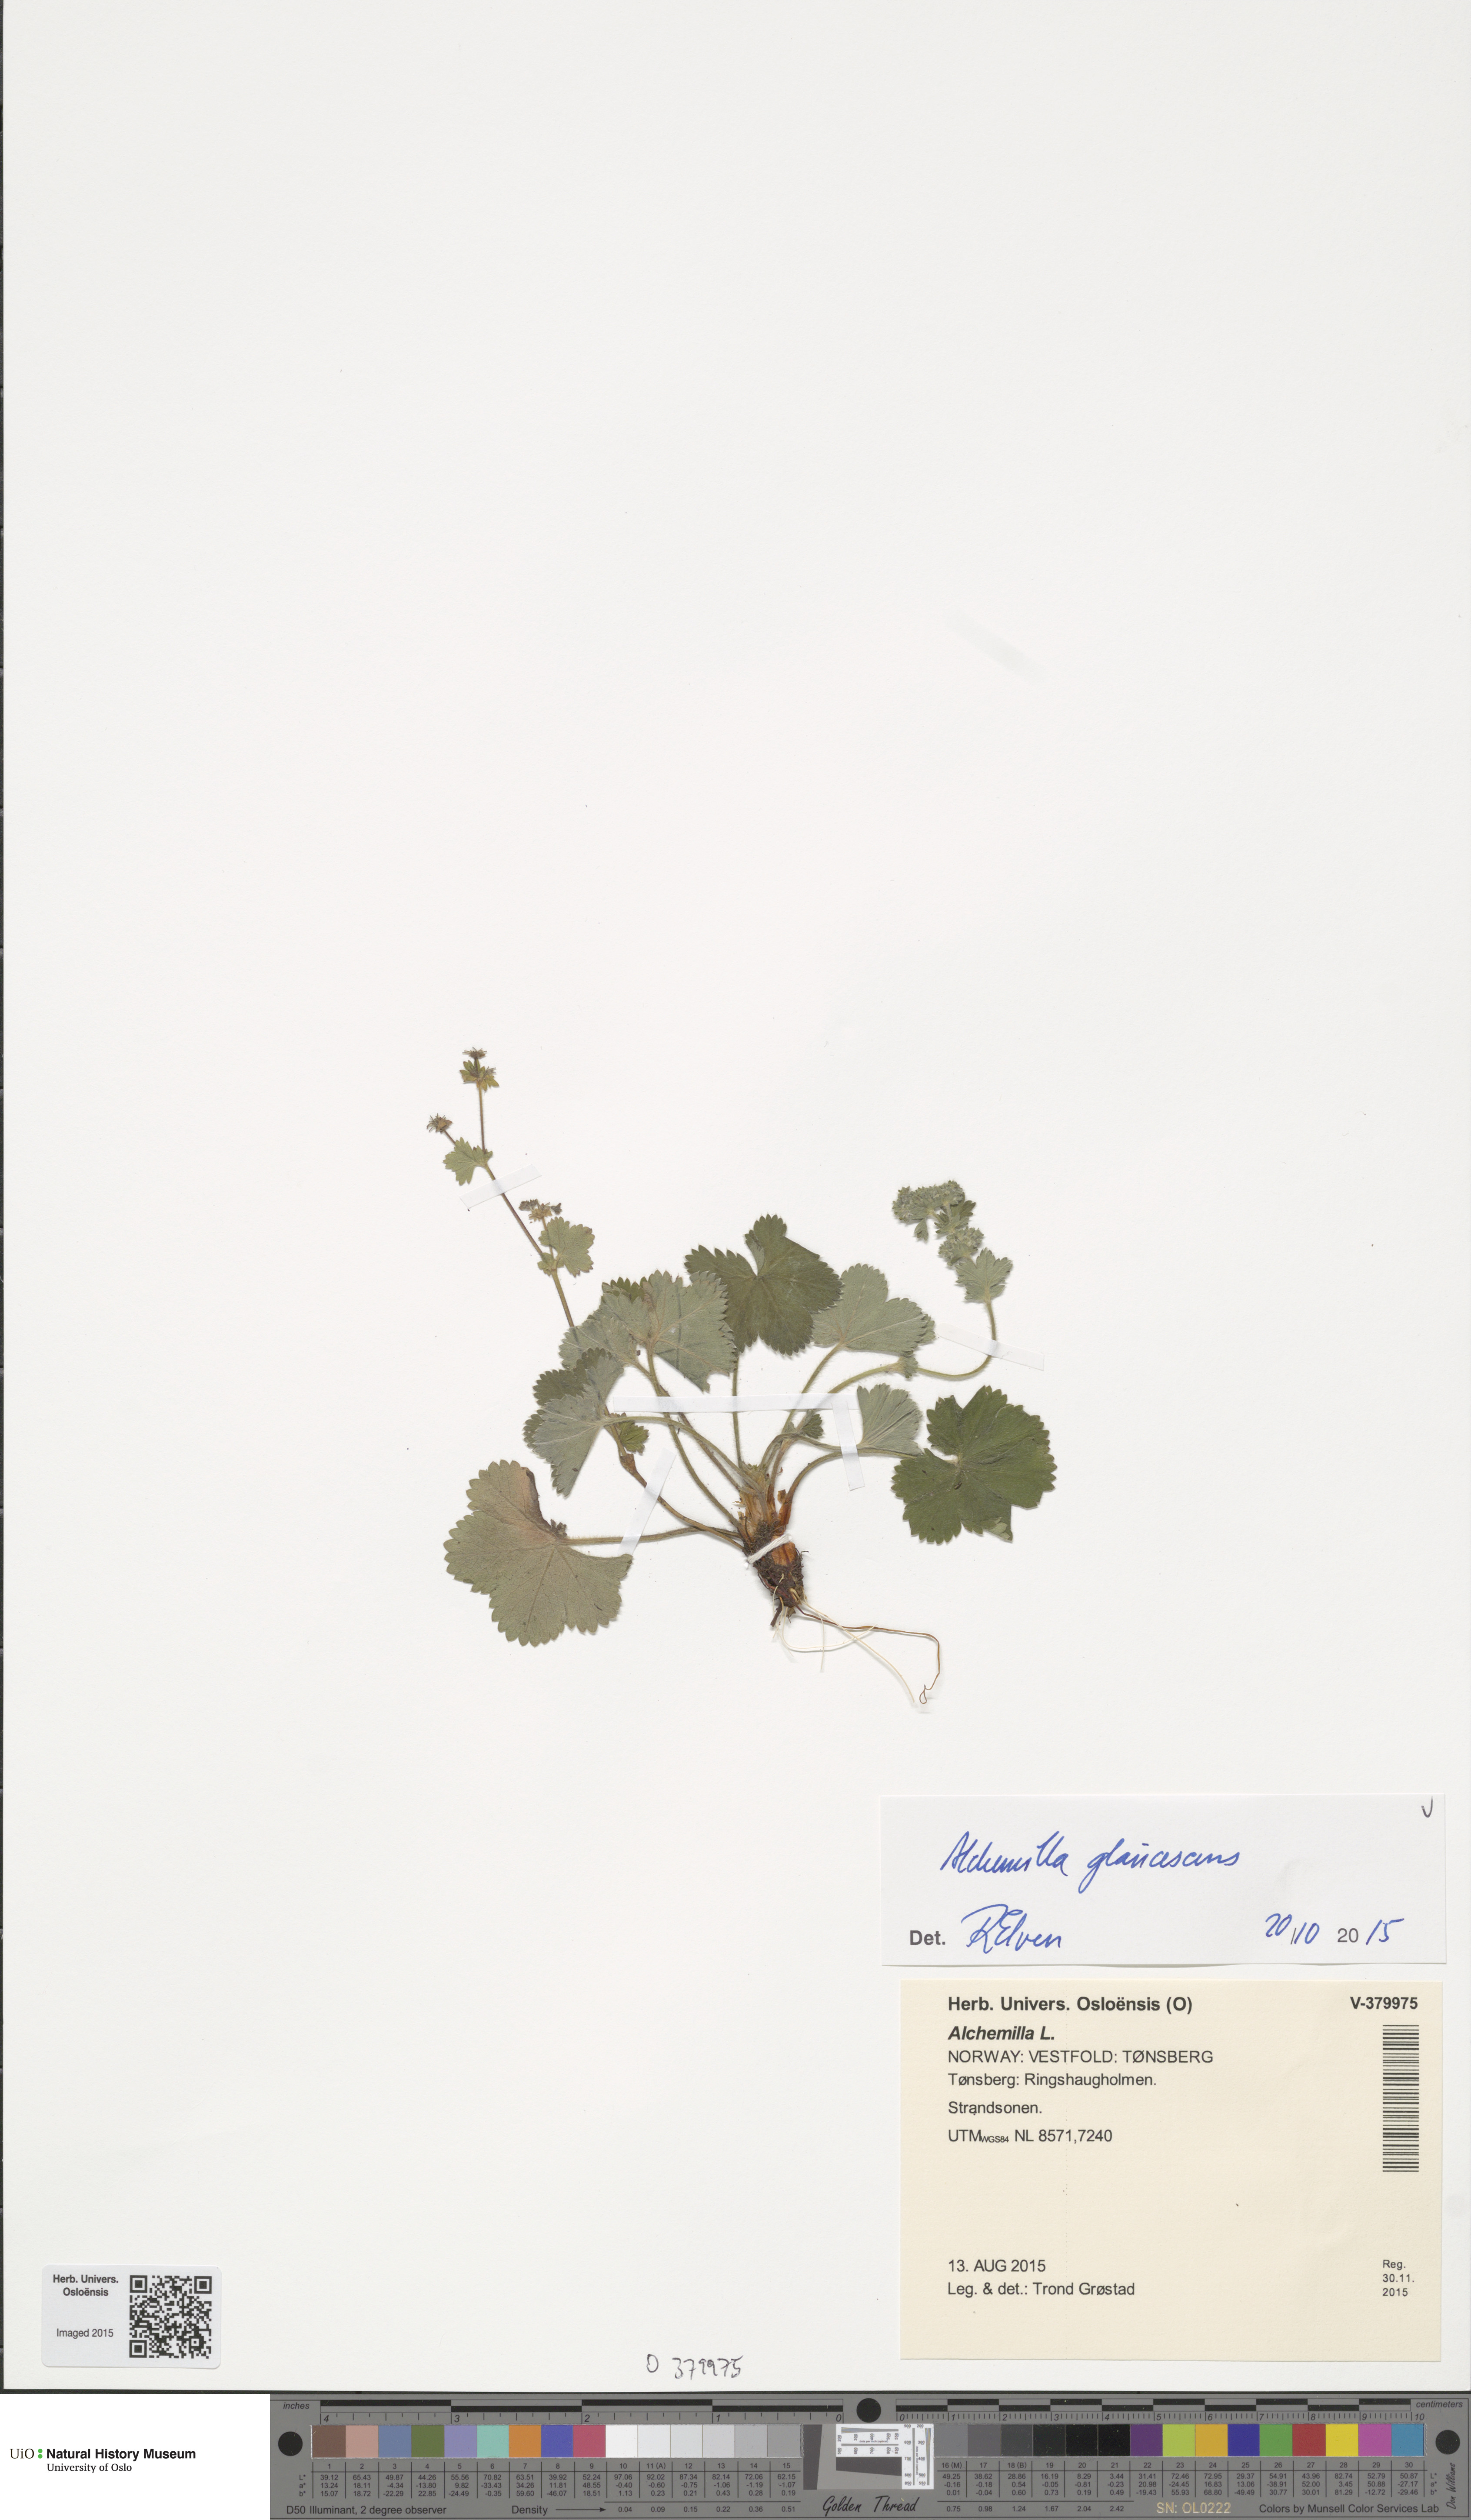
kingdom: Plantae
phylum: Tracheophyta
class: Magnoliopsida
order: Rosales
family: Rosaceae
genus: Alchemilla
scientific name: Alchemilla glaucescens
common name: Silky lady's mantle
